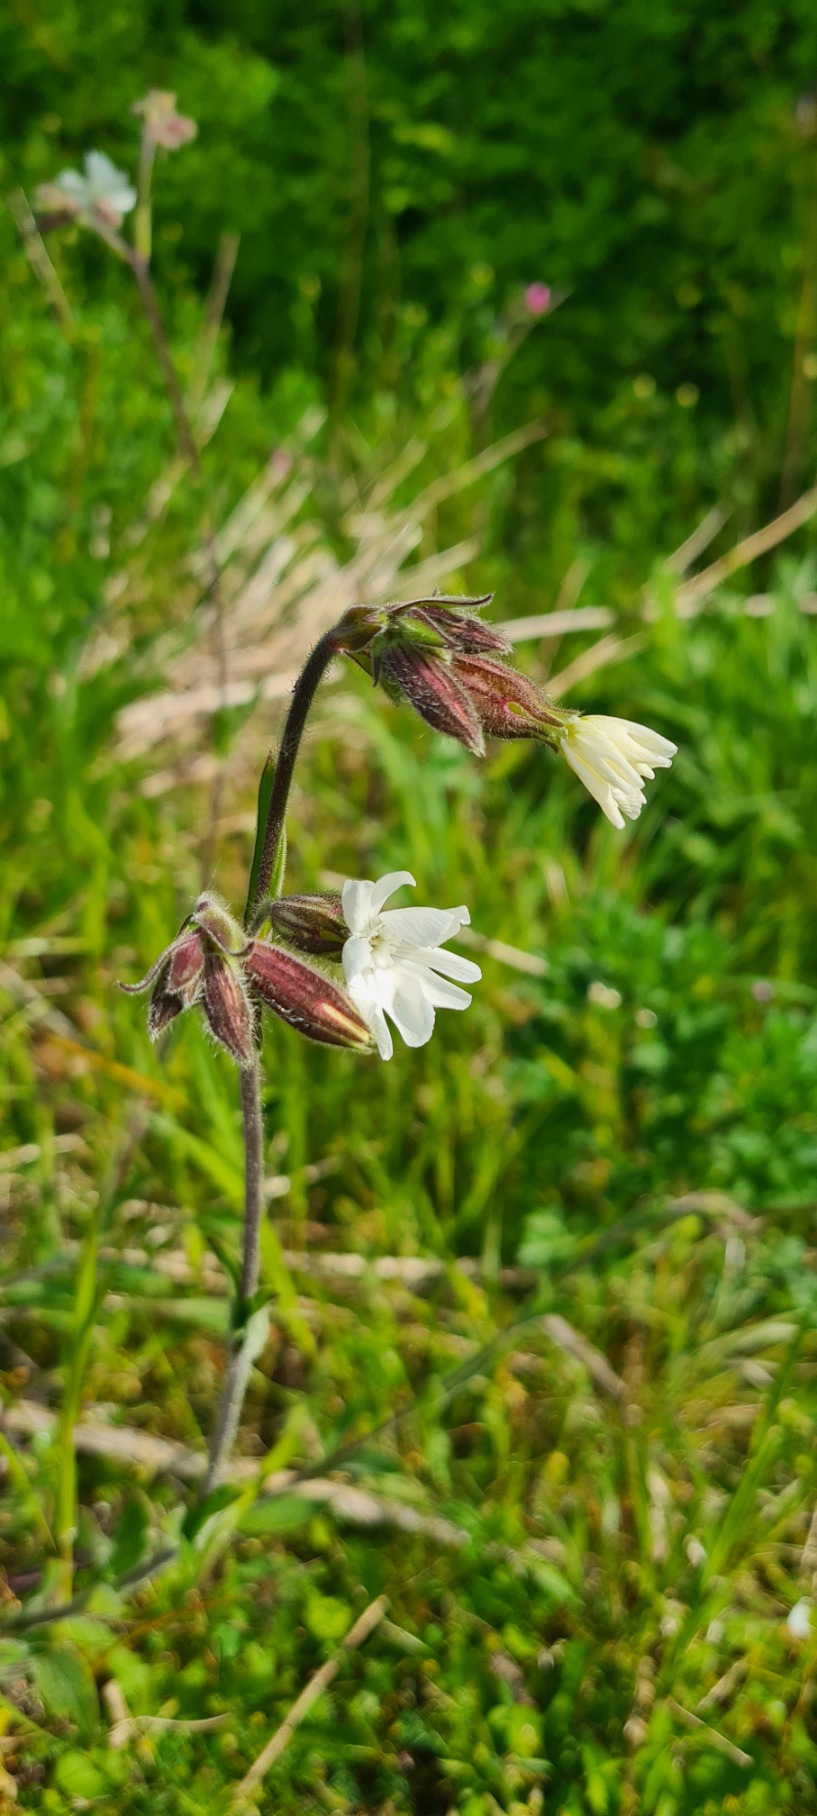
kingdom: Plantae
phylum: Tracheophyta
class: Magnoliopsida
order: Caryophyllales
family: Caryophyllaceae
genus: Silene
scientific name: Silene latifolia
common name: Aftenpragtstjerne
